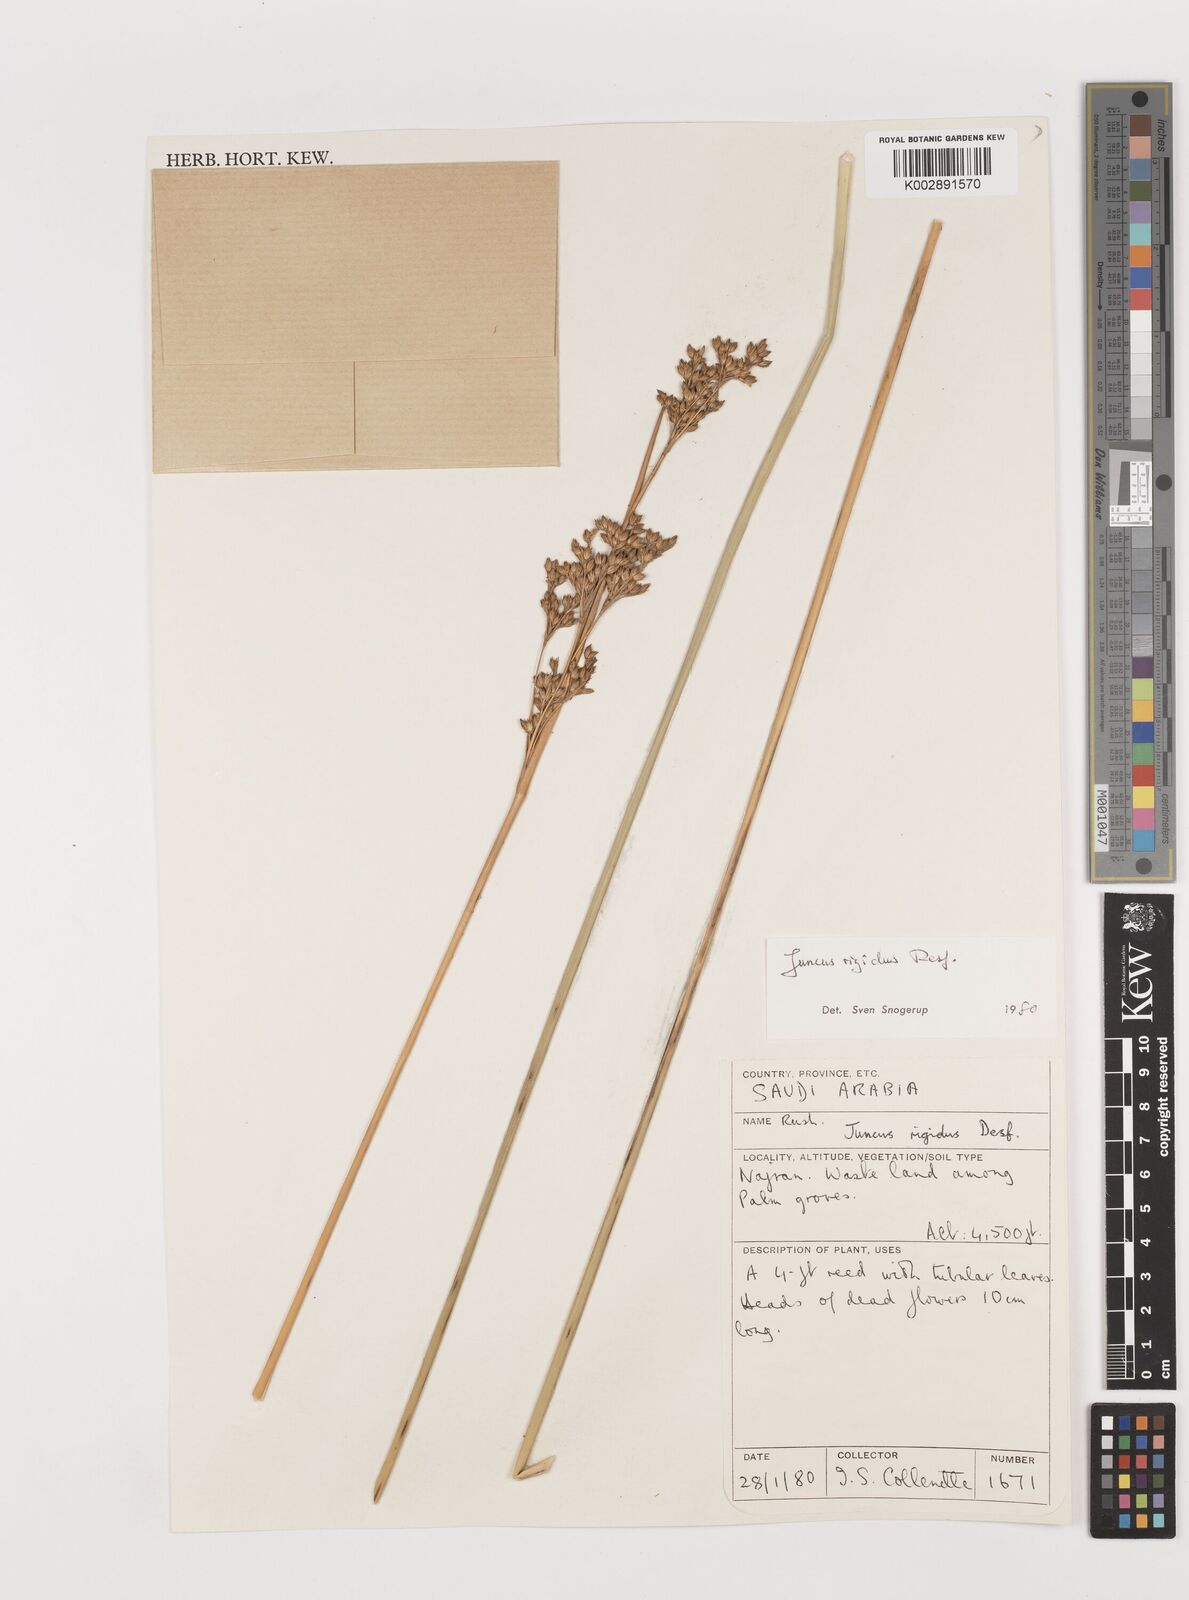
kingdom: Plantae
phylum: Tracheophyta
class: Liliopsida
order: Poales
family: Juncaceae
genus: Juncus
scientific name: Juncus rigidus
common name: Hard sea rush
